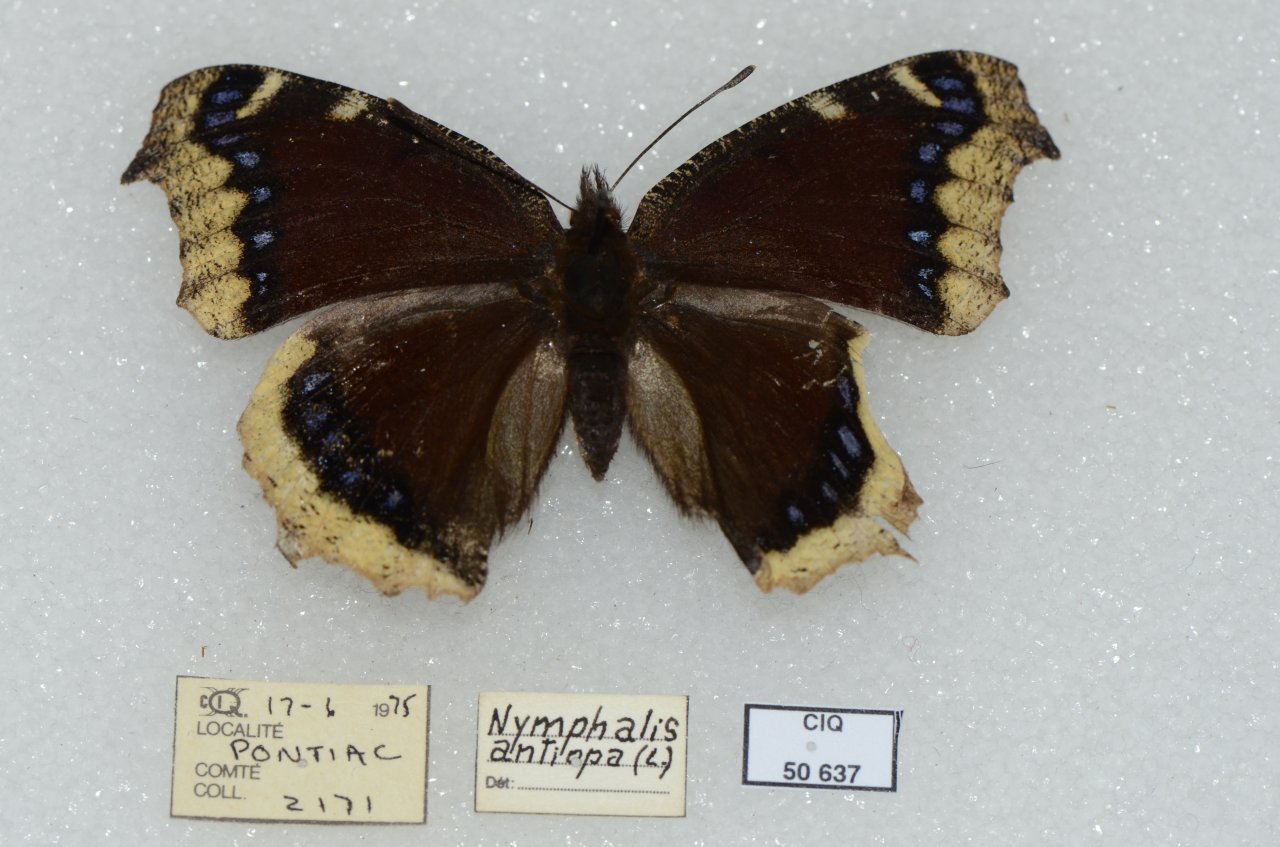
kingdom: Animalia
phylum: Arthropoda
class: Insecta
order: Lepidoptera
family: Nymphalidae
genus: Nymphalis
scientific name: Nymphalis antiopa
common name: Mourning Cloak
